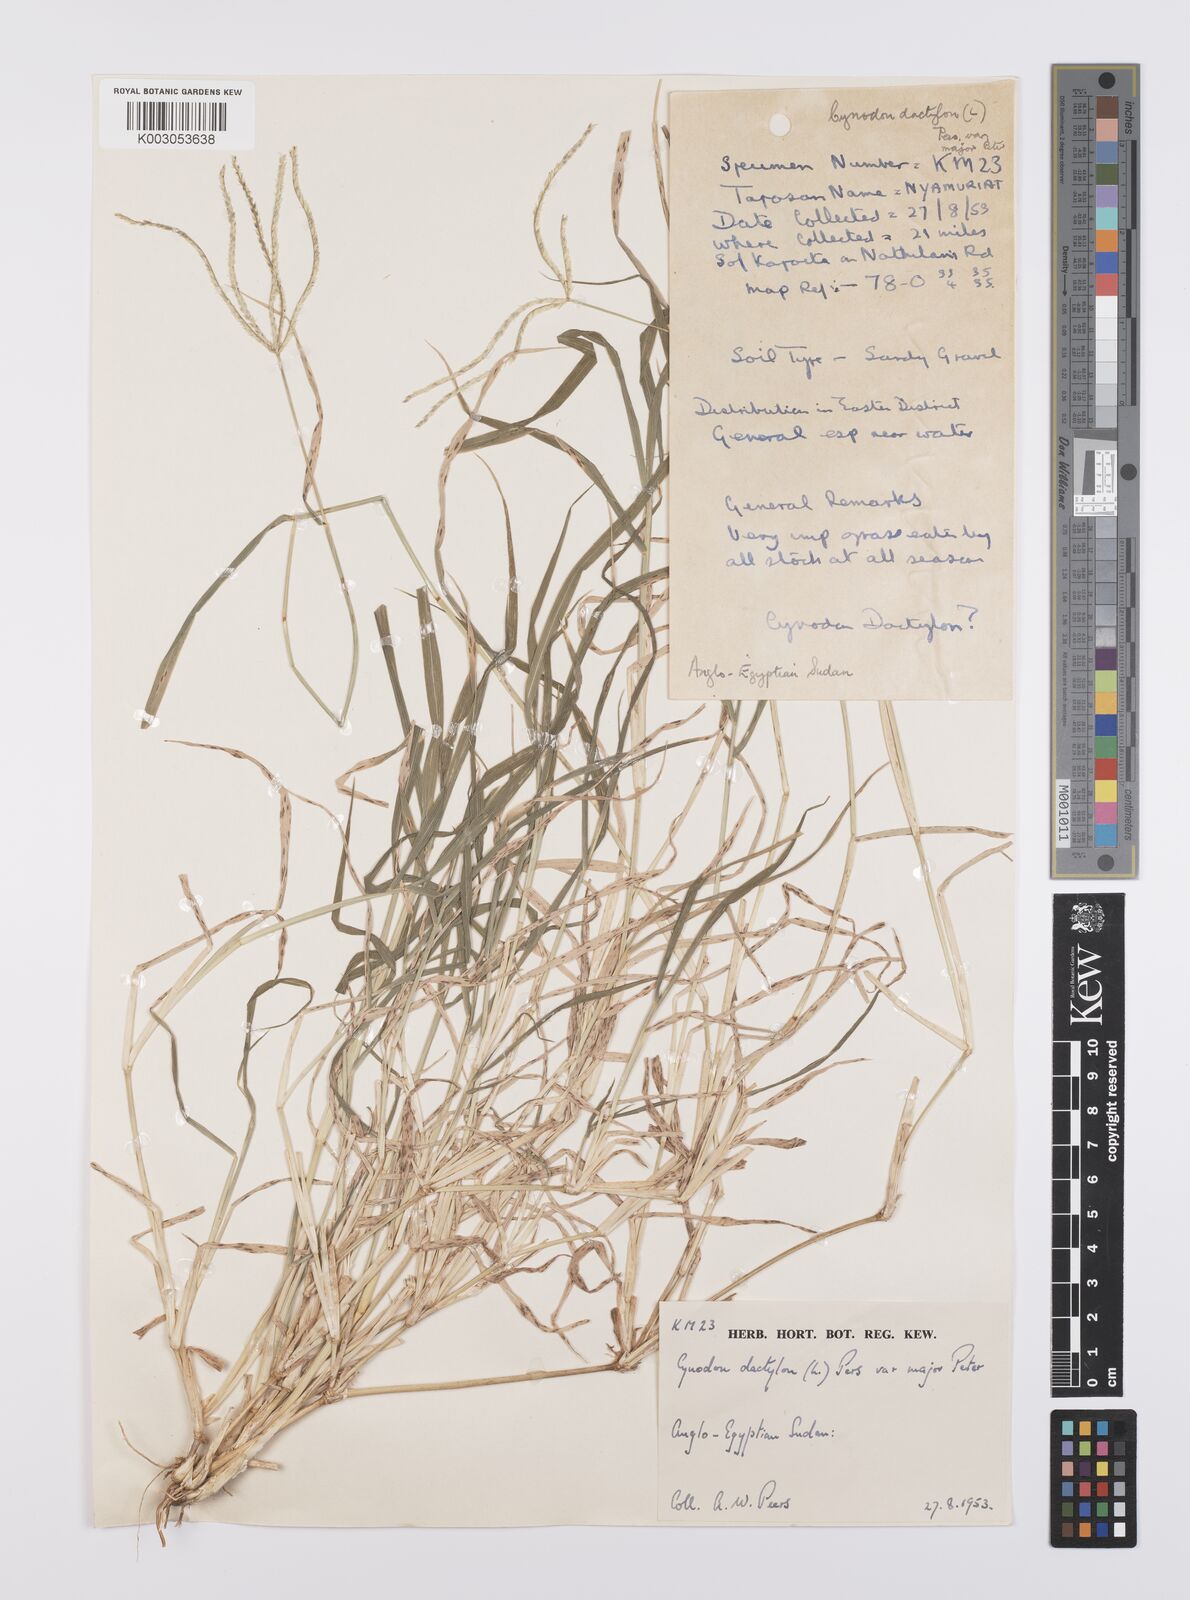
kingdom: Plantae
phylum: Tracheophyta
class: Liliopsida
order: Poales
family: Poaceae
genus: Cynodon
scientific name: Cynodon nlemfuensis
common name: African bermudagrass
